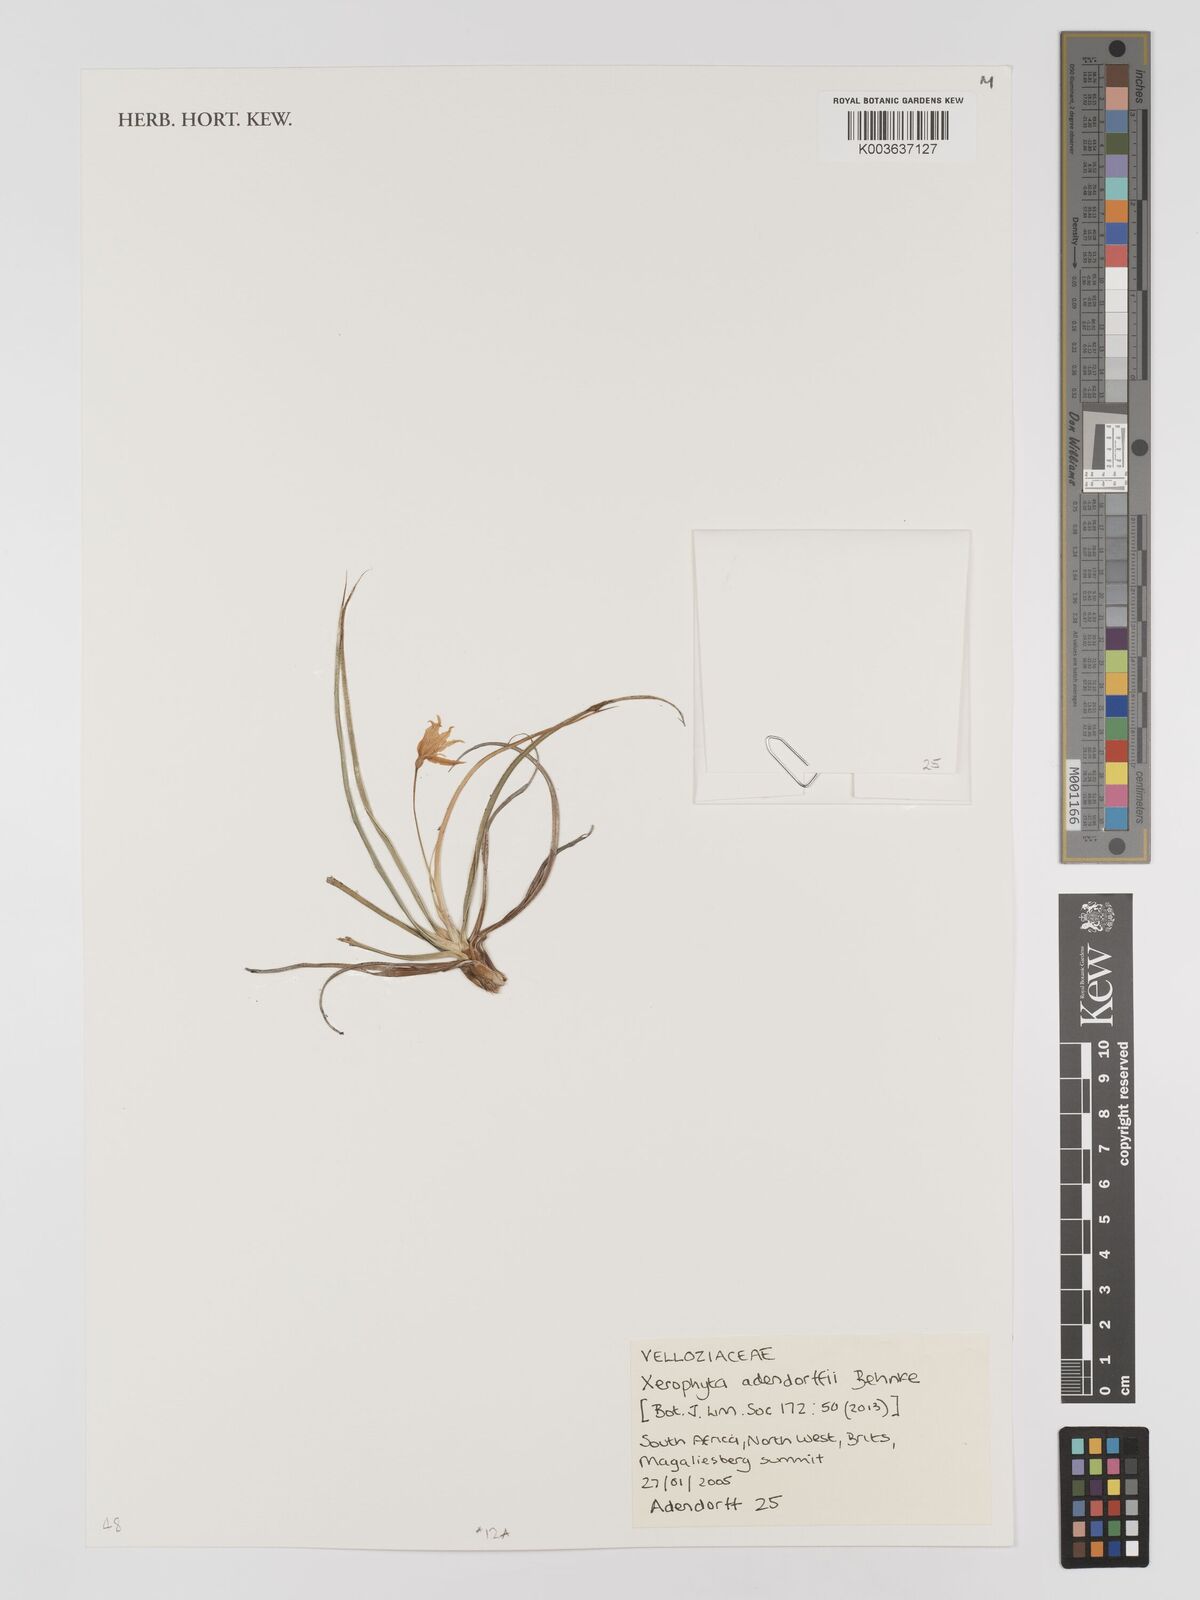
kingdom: Plantae
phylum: Tracheophyta
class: Liliopsida
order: Pandanales
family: Velloziaceae
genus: Xerophyta
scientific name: Xerophyta adendorffii
